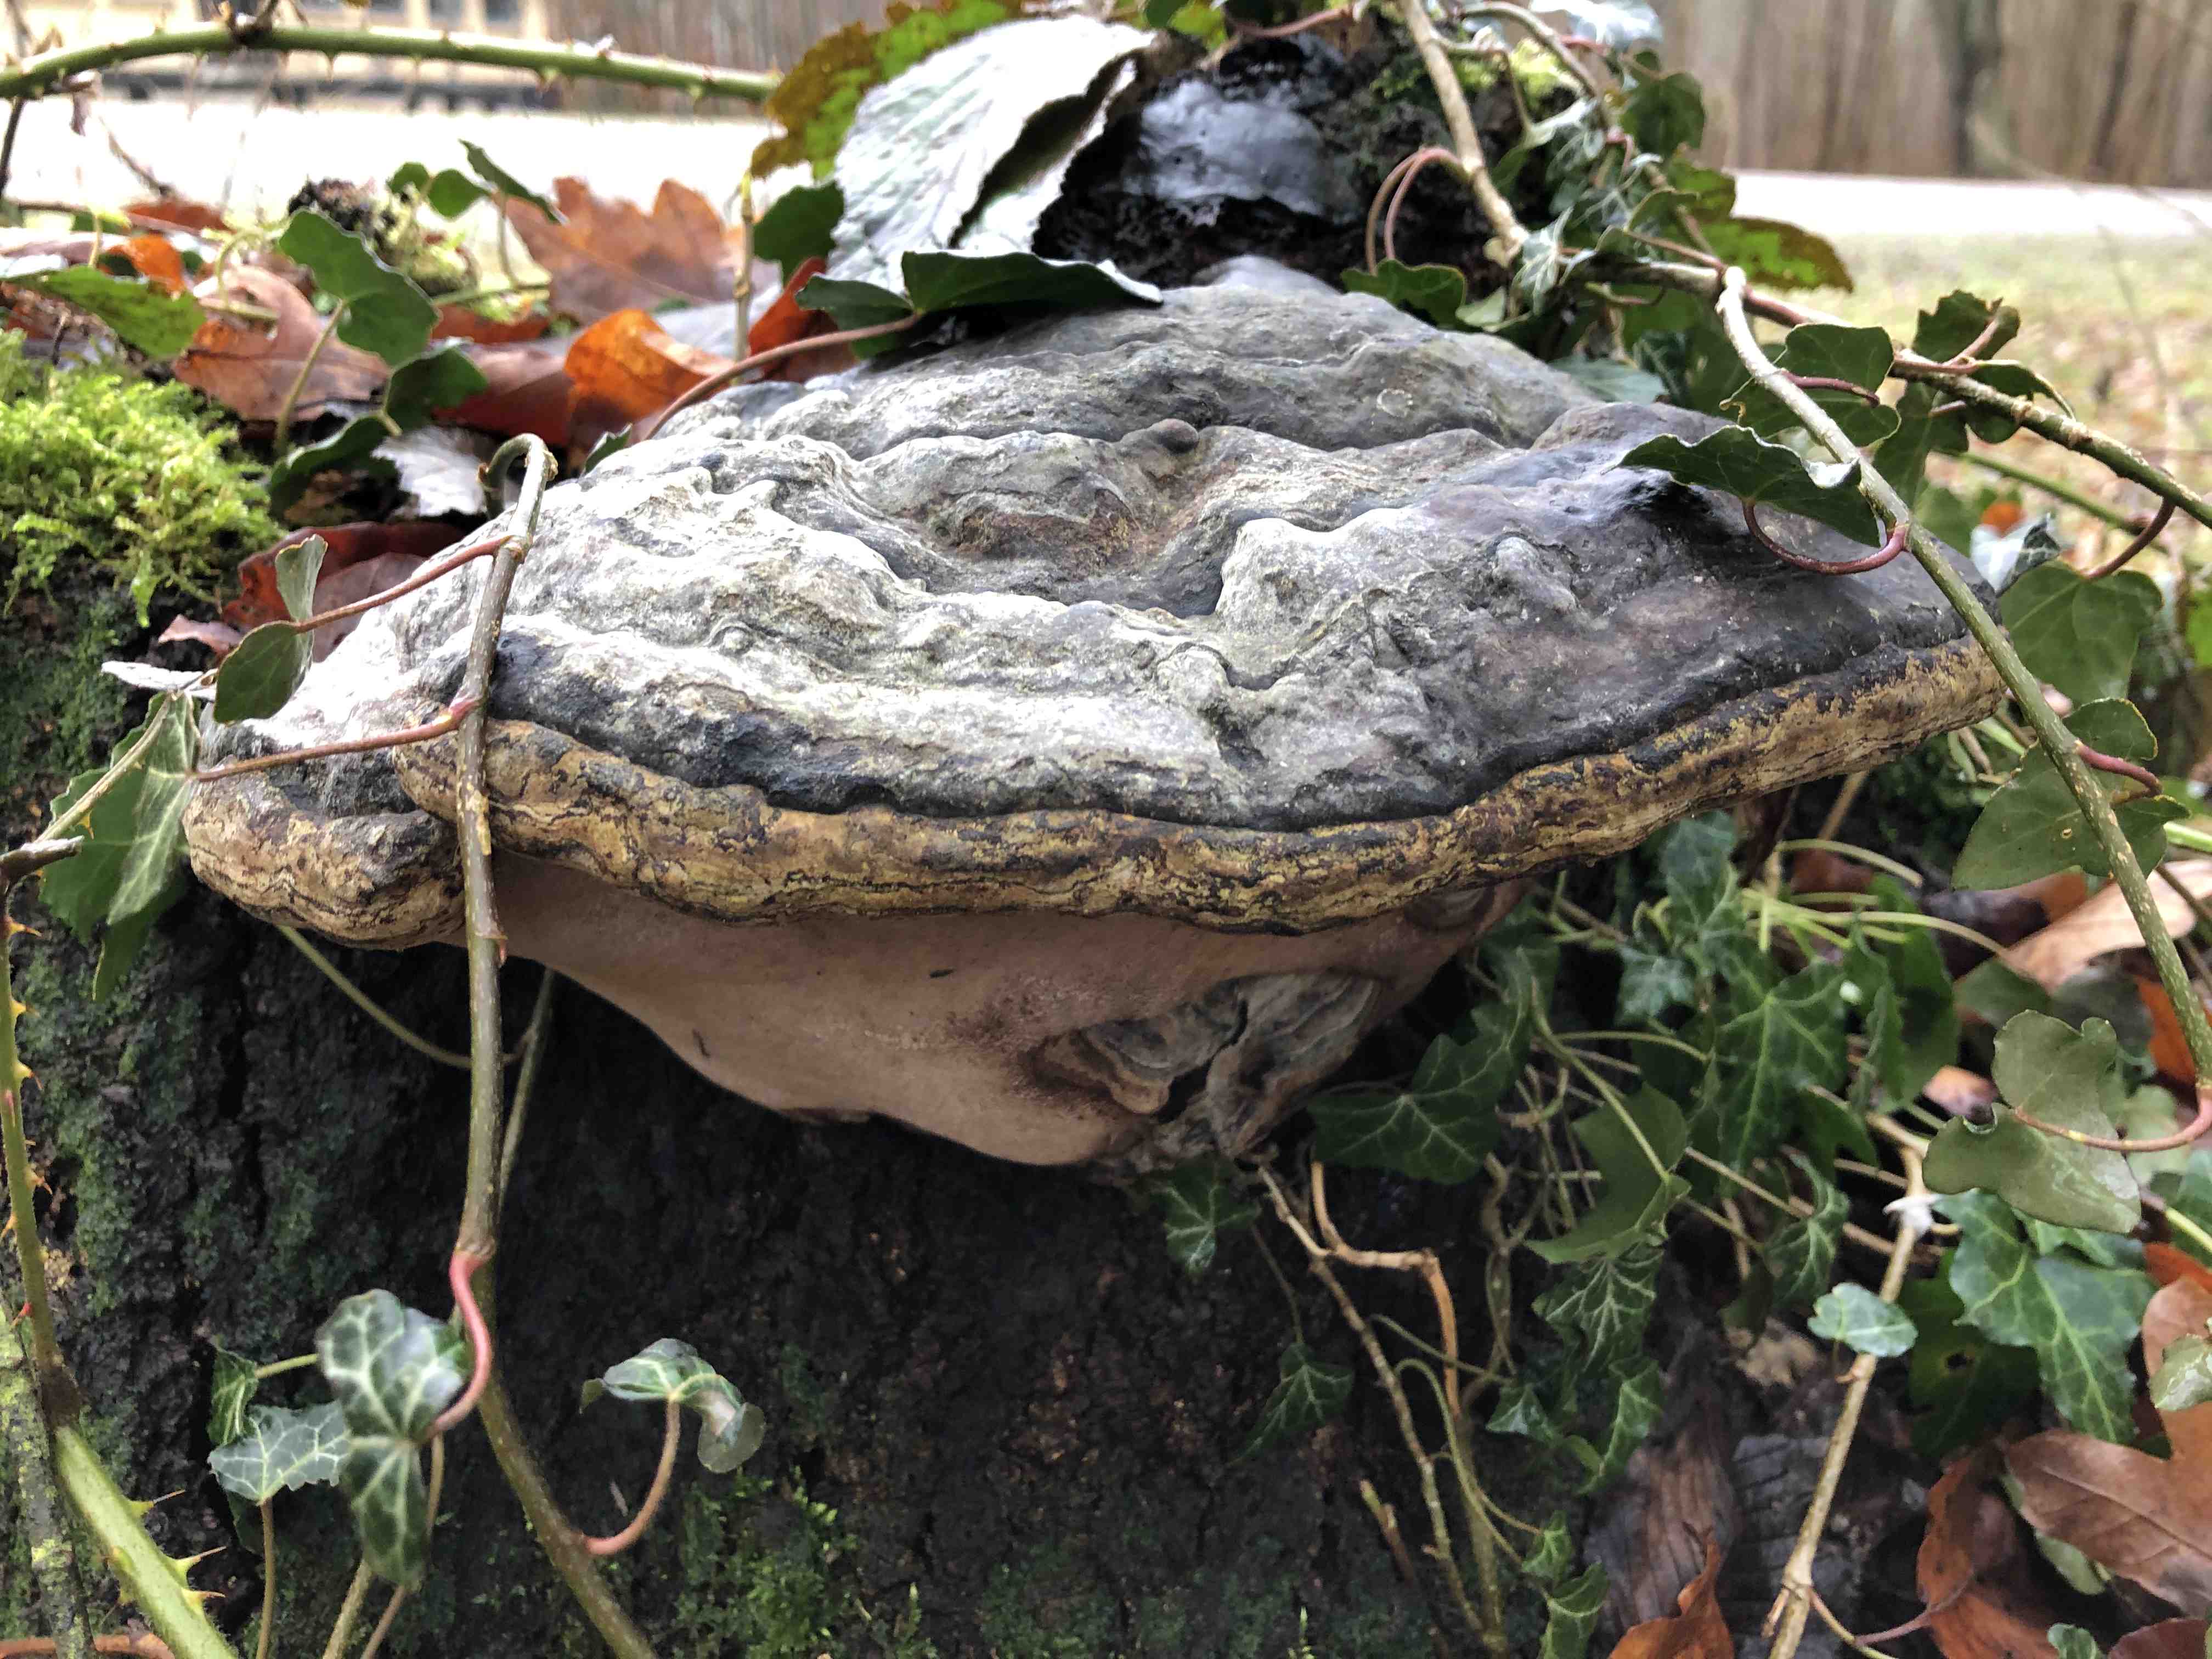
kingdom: Fungi
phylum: Basidiomycota
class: Agaricomycetes
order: Polyporales
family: Polyporaceae
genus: Fomes
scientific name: Fomes fomentarius
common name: tøndersvamp
